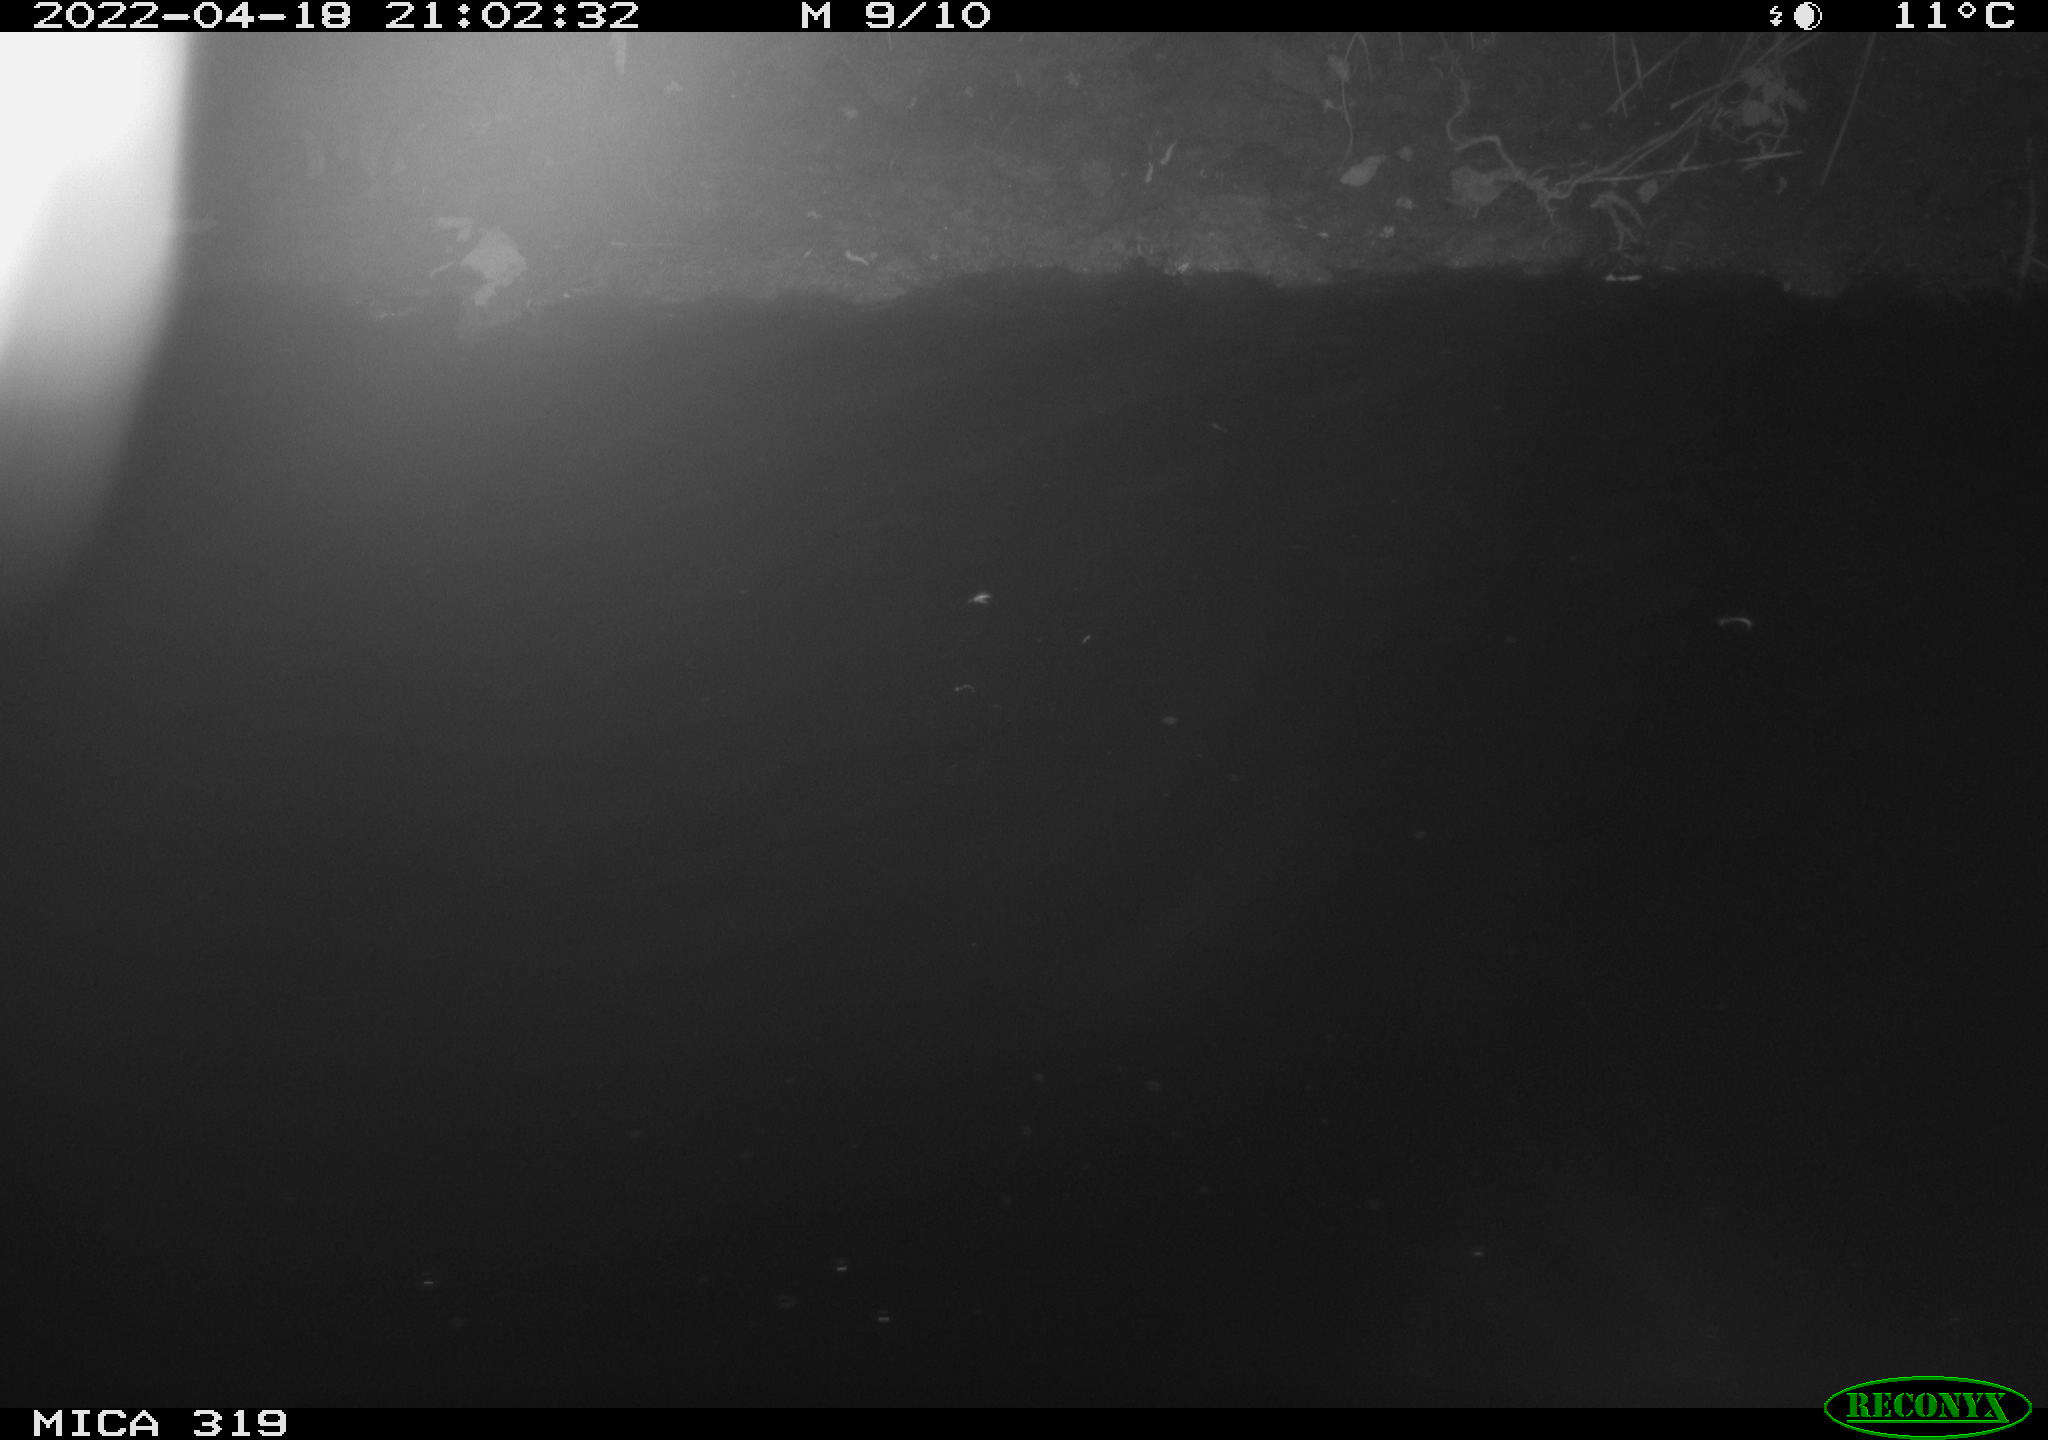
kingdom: Animalia
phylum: Chordata
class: Aves
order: Anseriformes
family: Anatidae
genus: Anas
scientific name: Anas platyrhynchos
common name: Mallard
